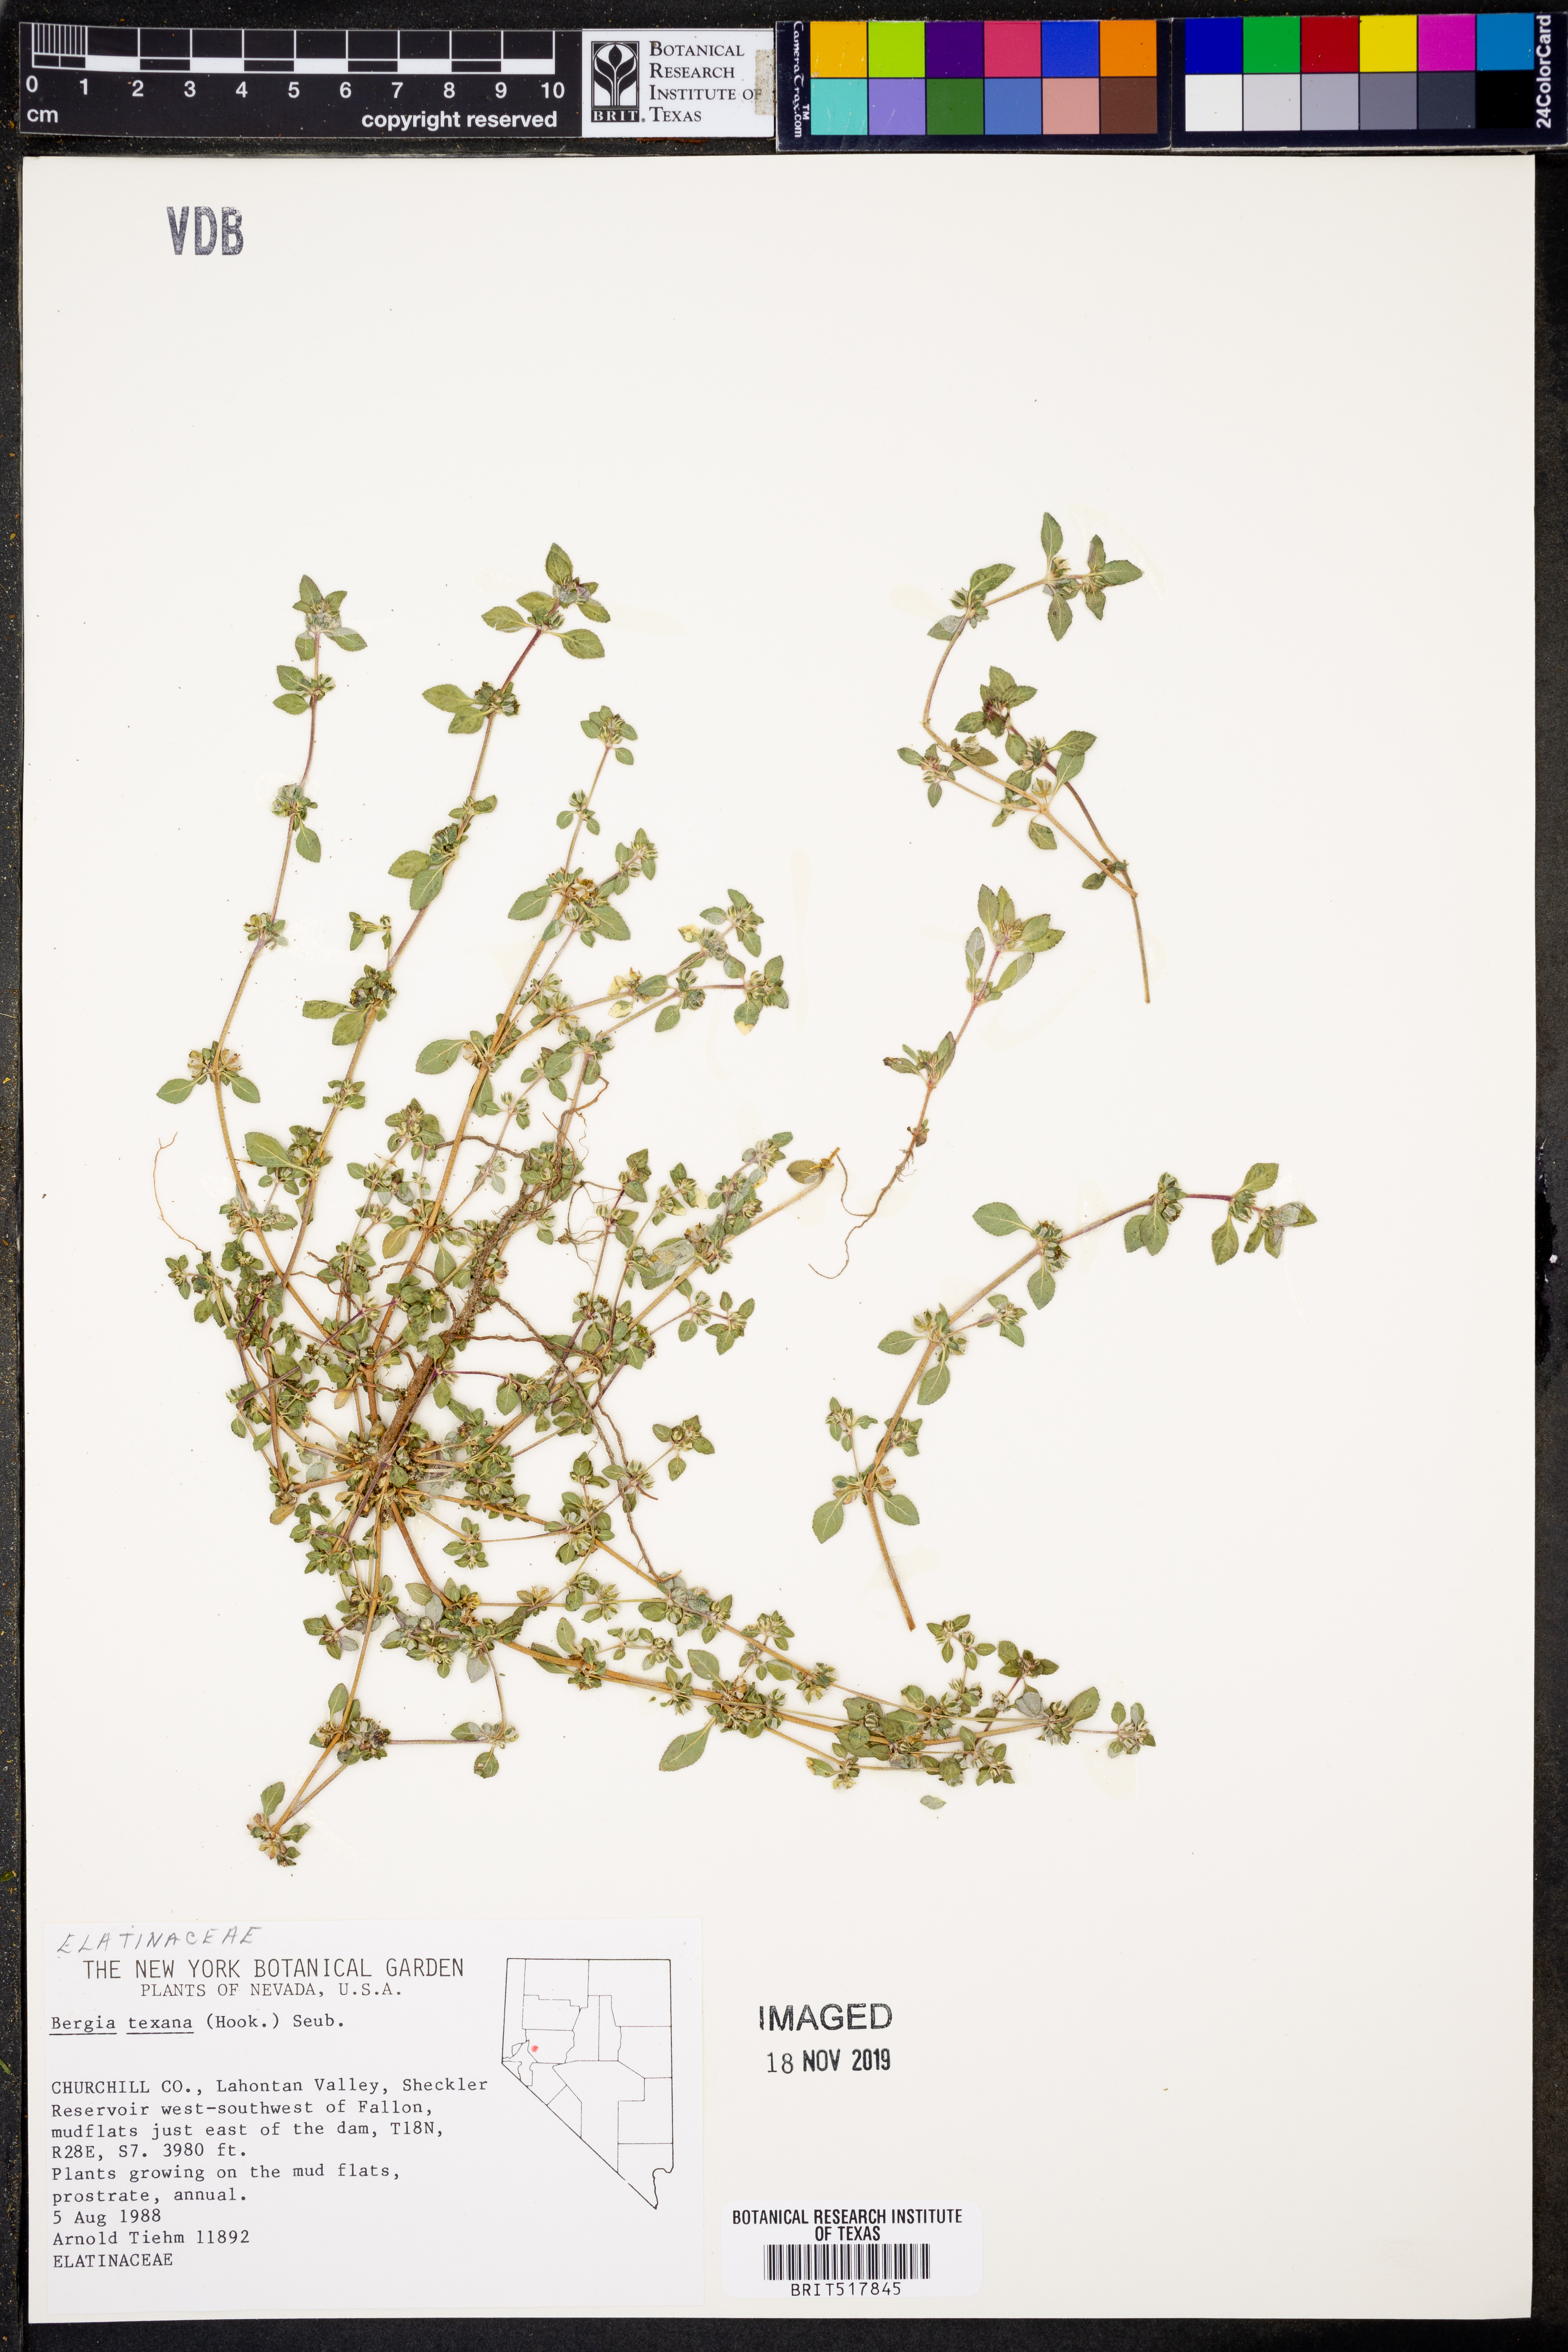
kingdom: Plantae
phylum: Tracheophyta
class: Magnoliopsida
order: Malpighiales
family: Elatinaceae
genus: Bergia
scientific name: Bergia texana
